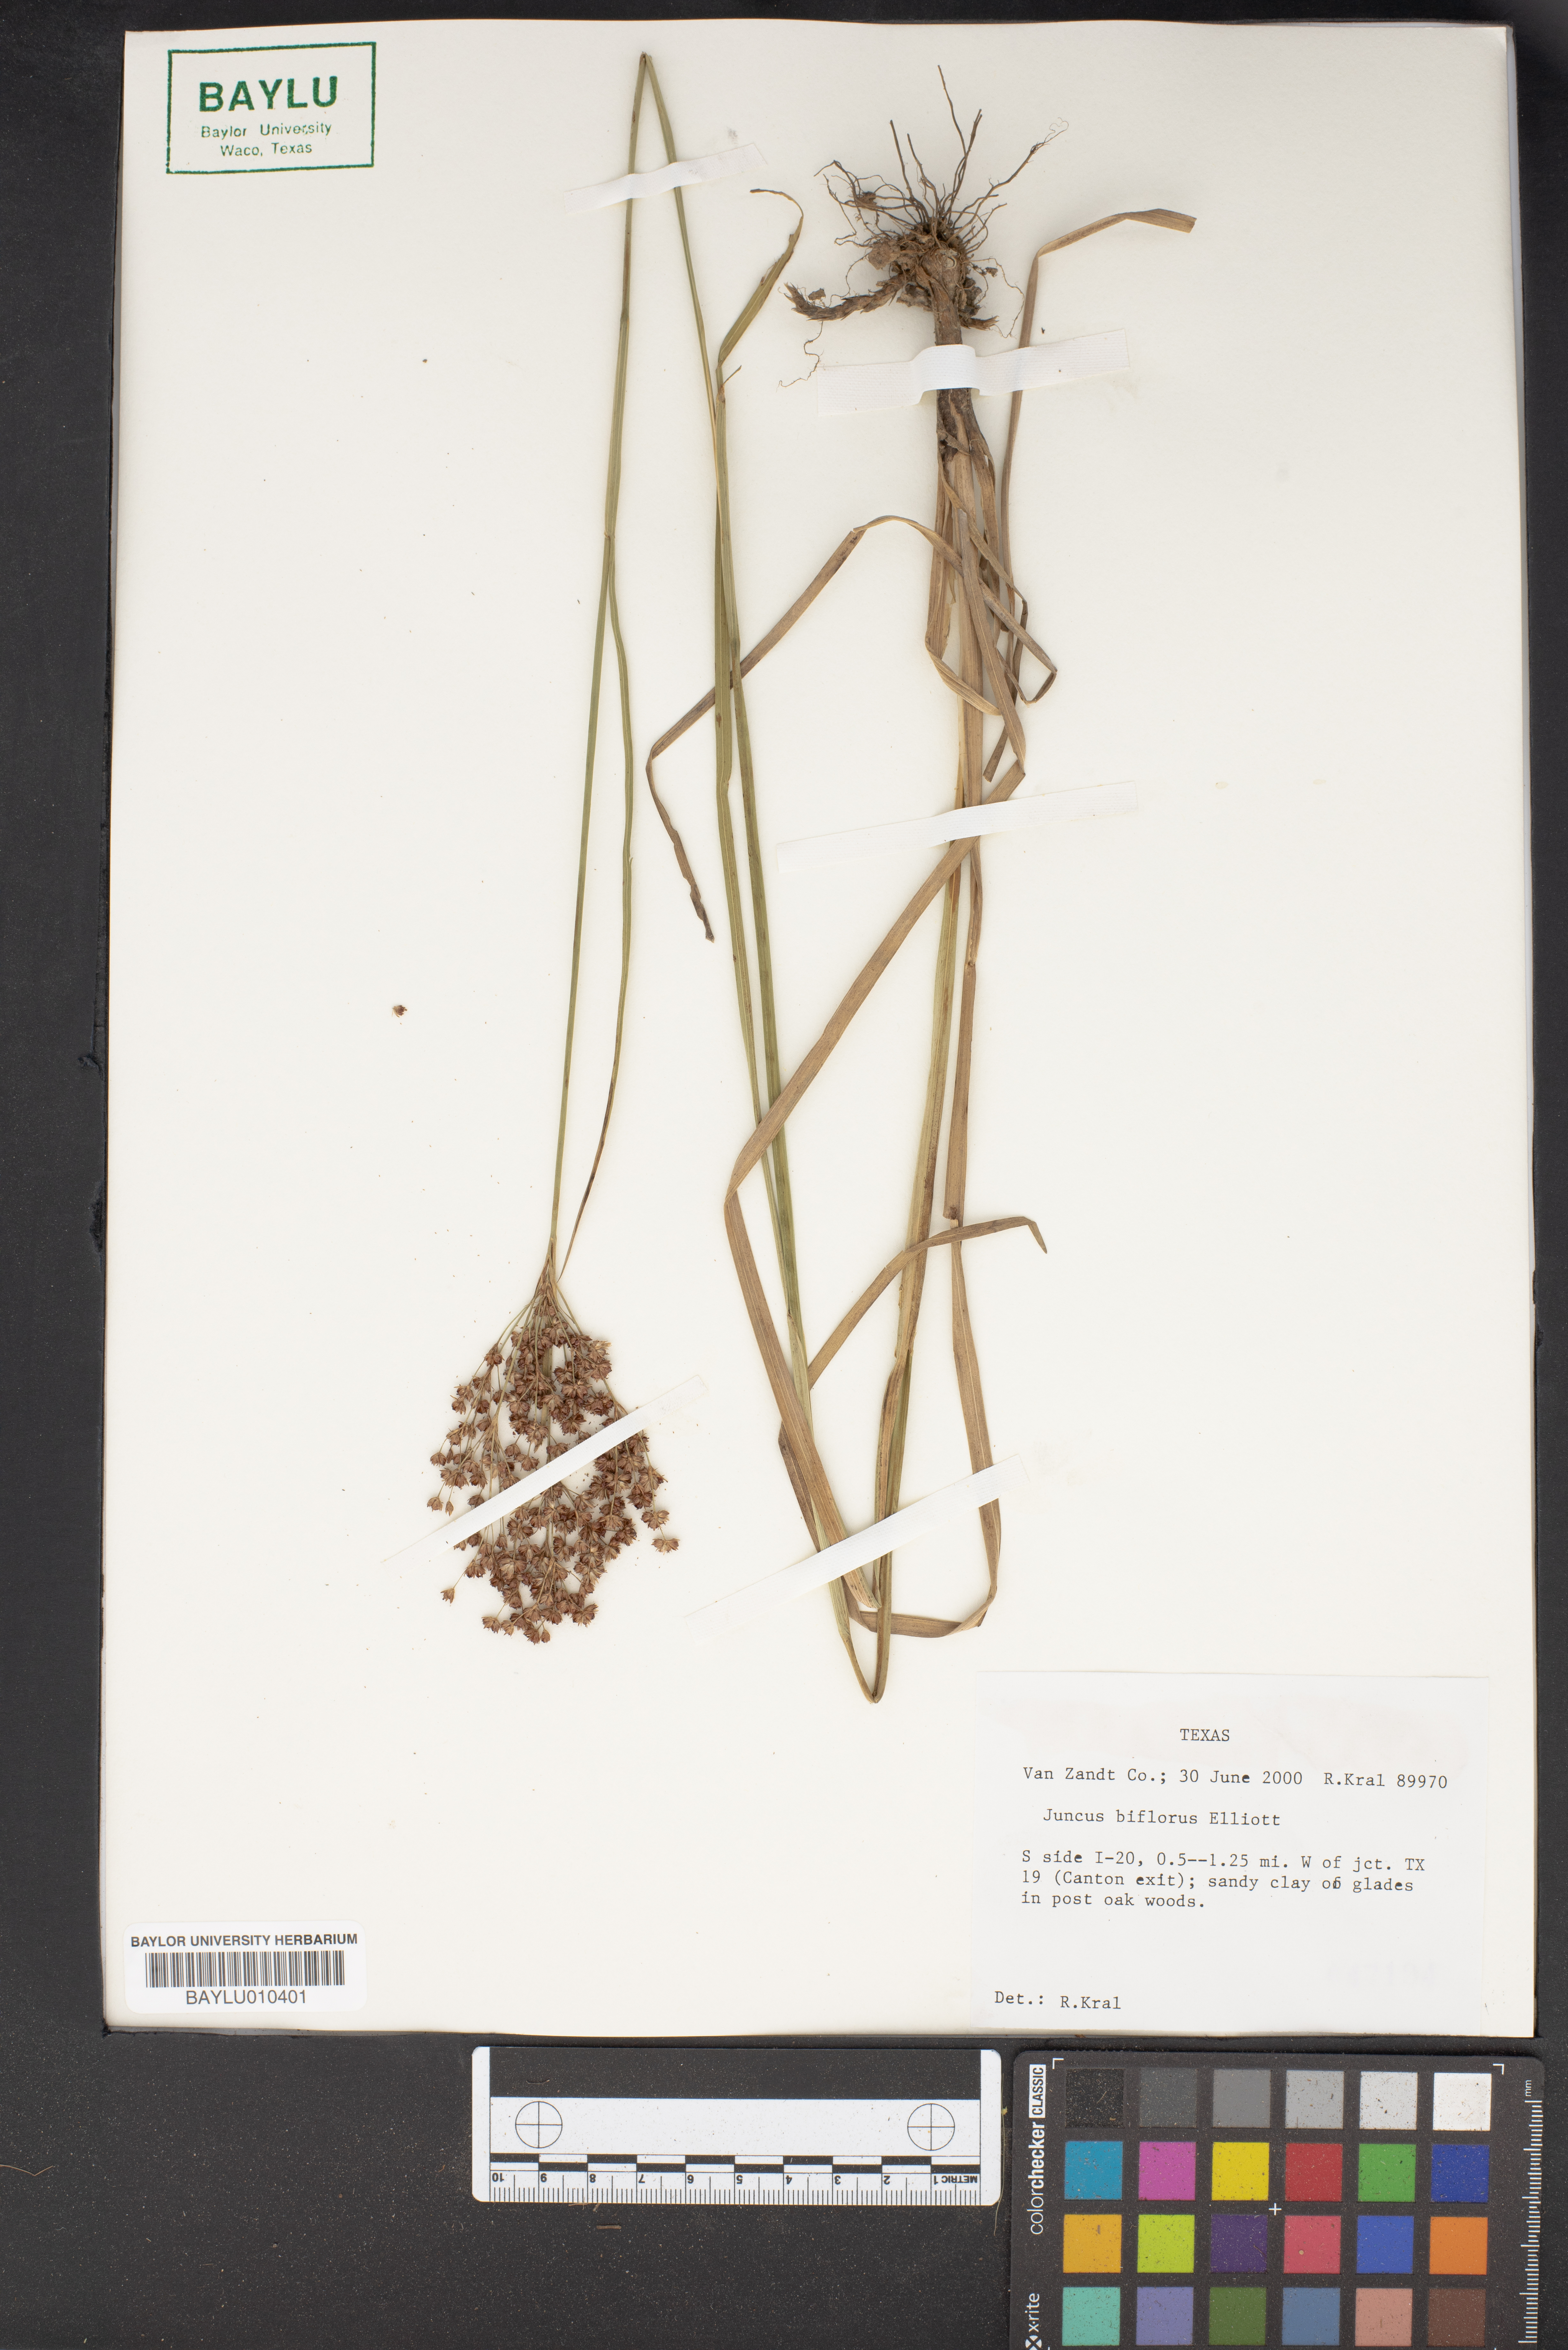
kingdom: Plantae
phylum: Tracheophyta
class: Liliopsida
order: Poales
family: Juncaceae
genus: Juncus
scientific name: Juncus biflorus
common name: Two-flowered rush
